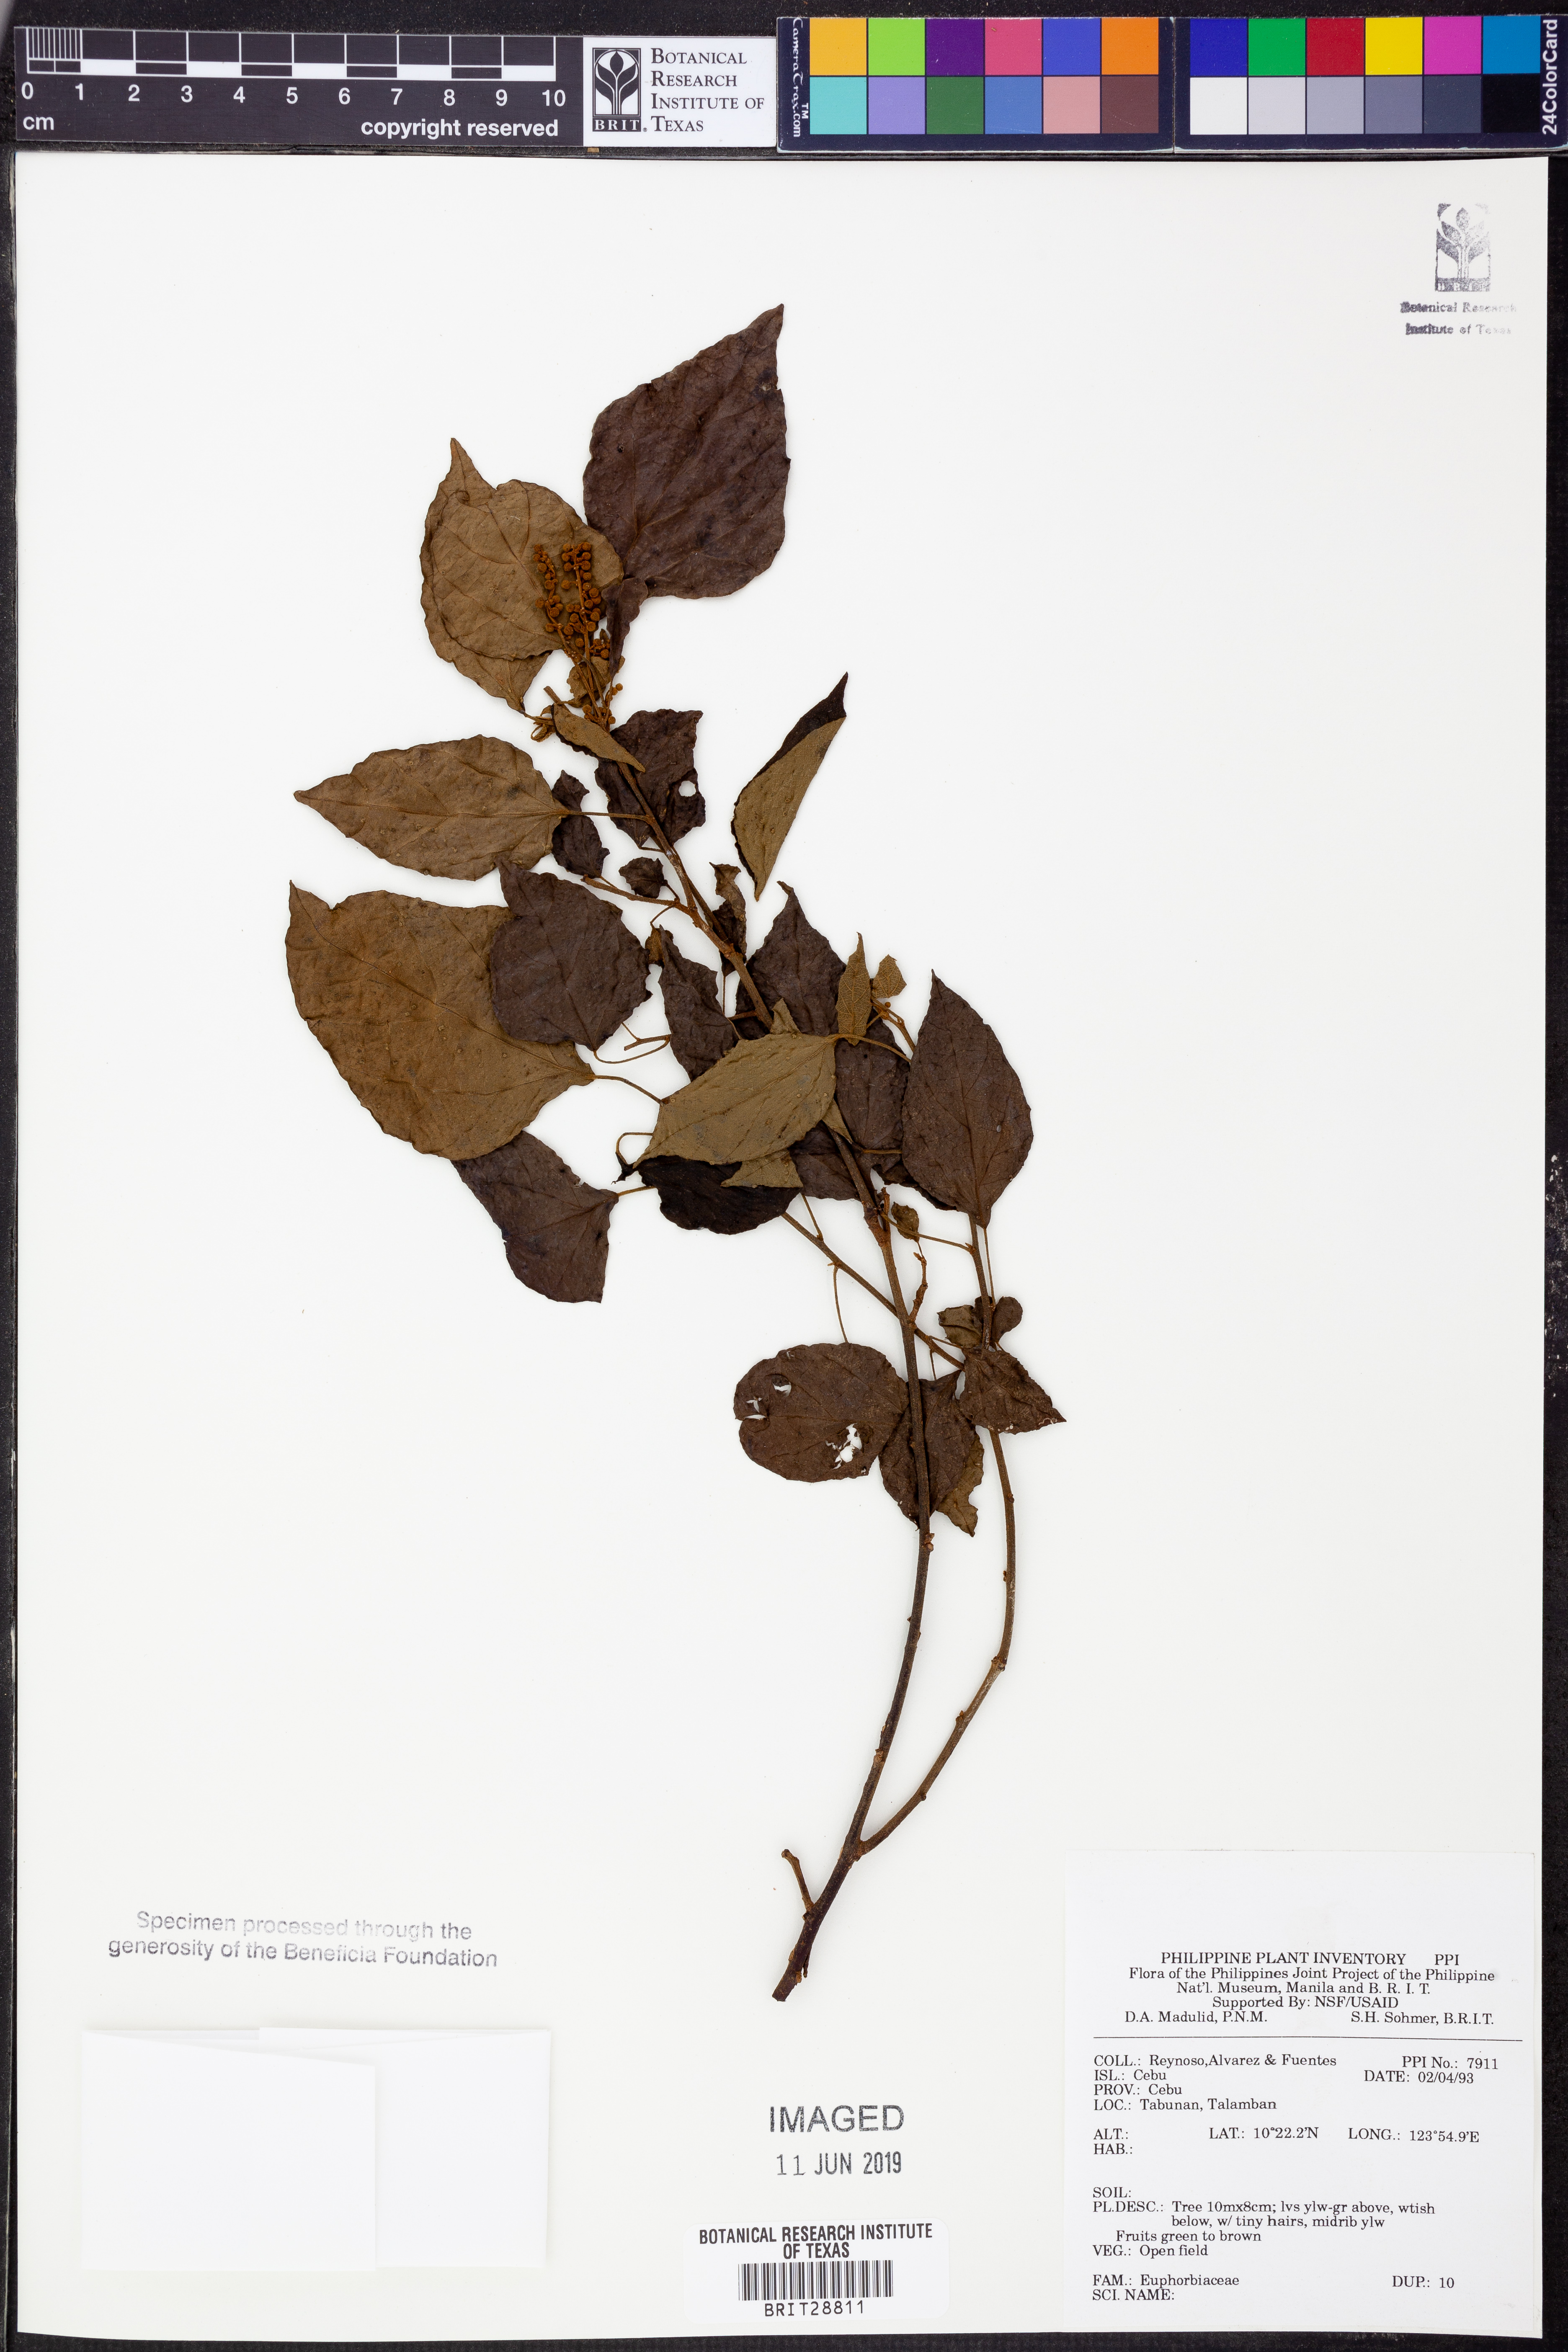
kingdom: Plantae
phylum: Tracheophyta
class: Magnoliopsida
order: Malpighiales
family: Euphorbiaceae
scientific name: Euphorbiaceae
